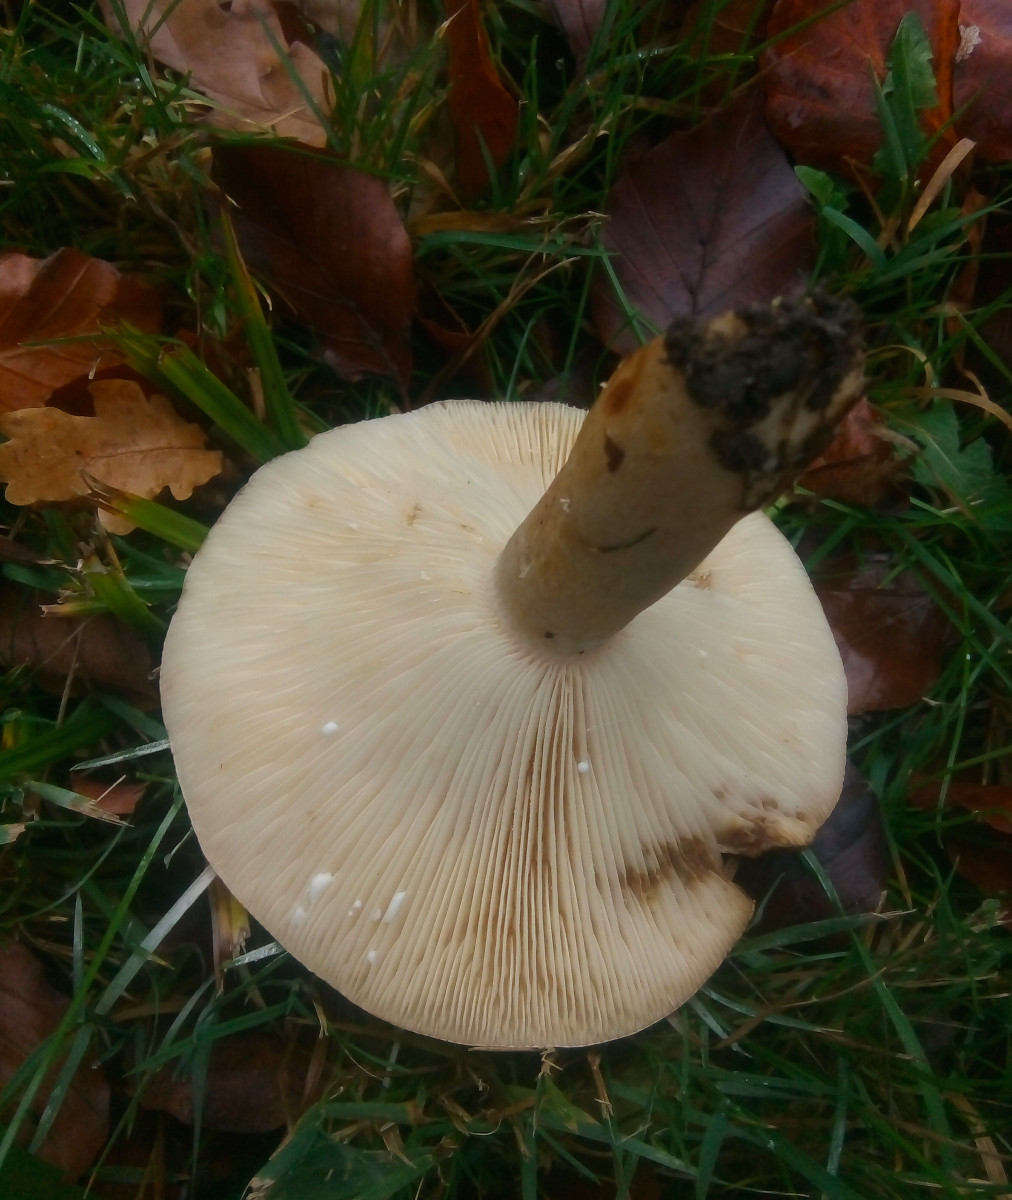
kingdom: Fungi
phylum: Basidiomycota
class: Agaricomycetes
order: Russulales
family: Russulaceae
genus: Lactarius
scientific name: Lactarius fluens
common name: lysrandet mælkehat
